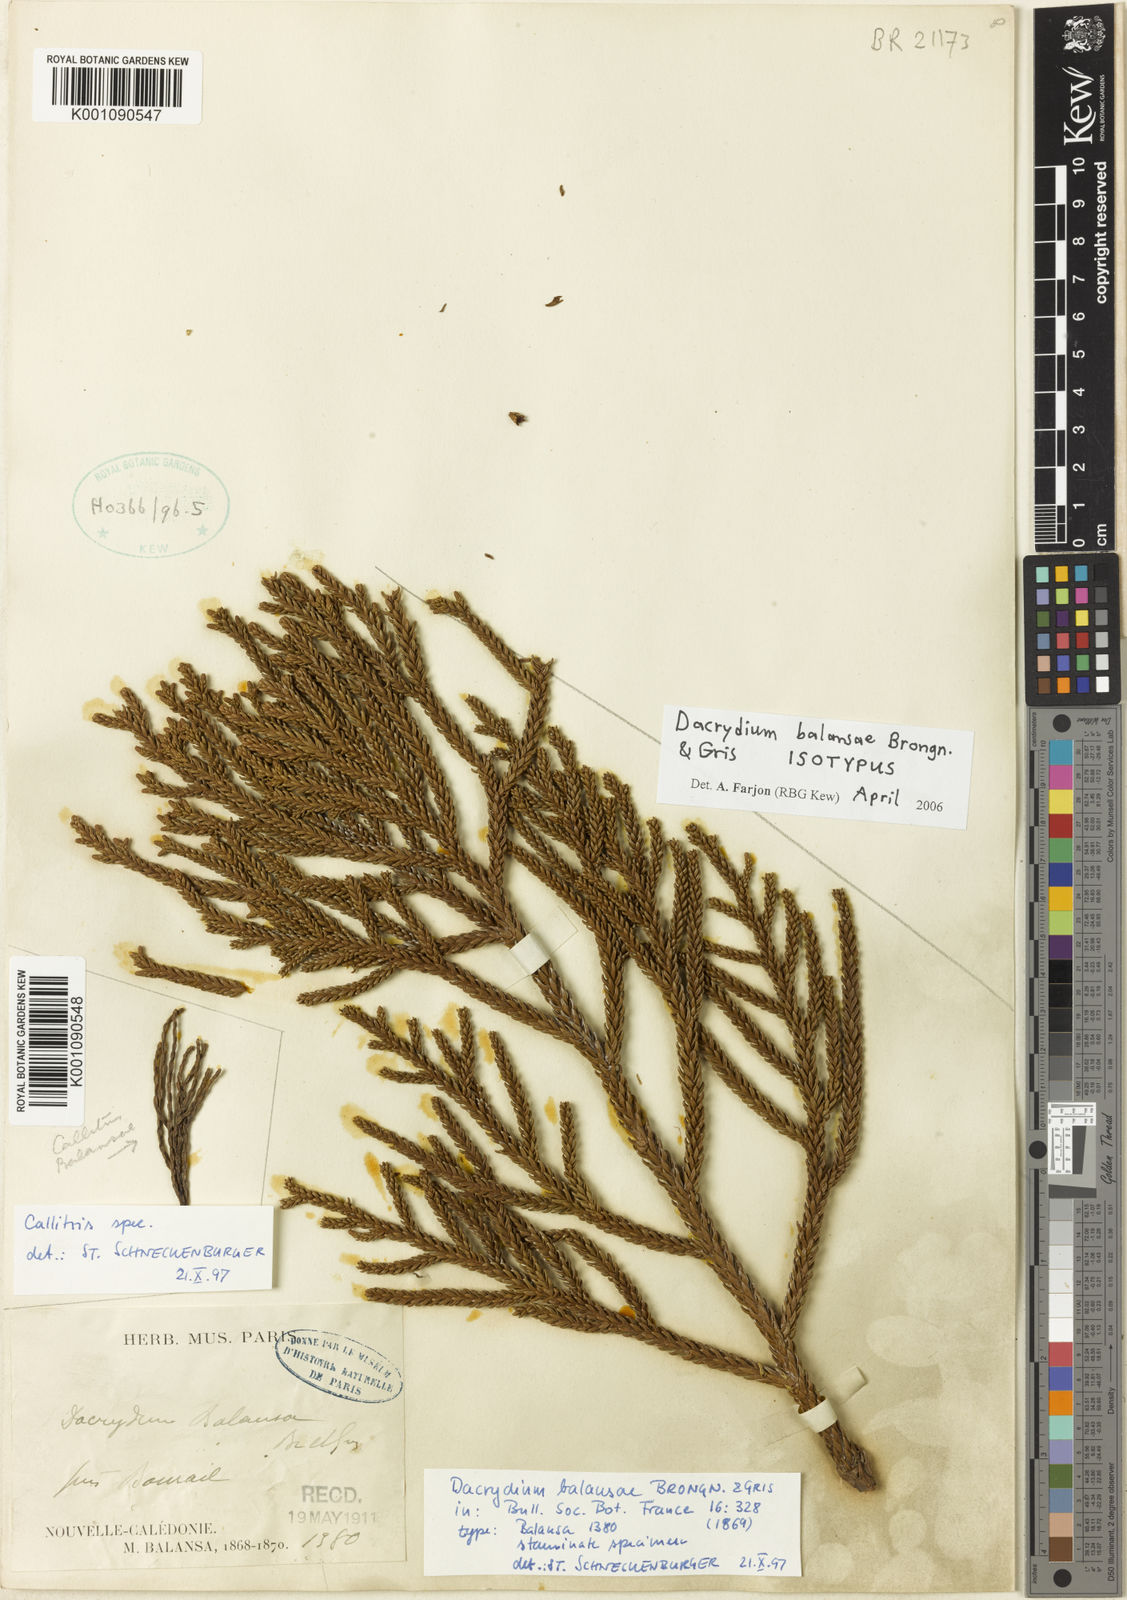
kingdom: Plantae
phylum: Tracheophyta
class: Pinopsida
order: Pinales
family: Podocarpaceae
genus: Dacrydium
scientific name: Dacrydium balansae
